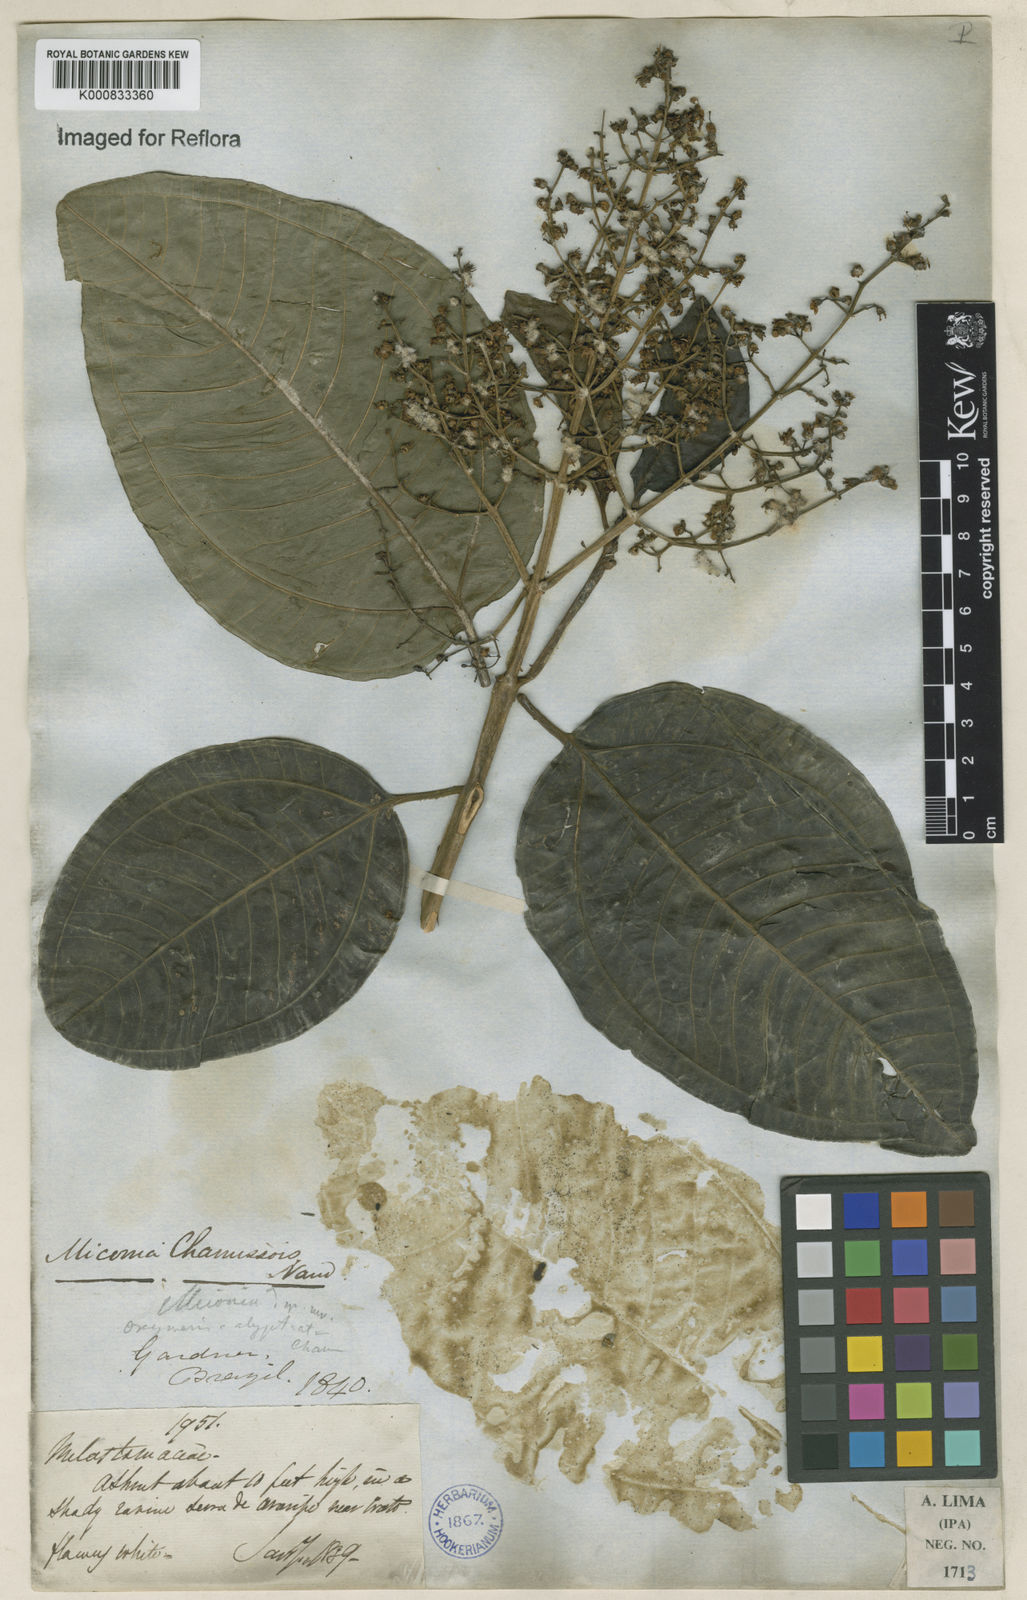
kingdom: Plantae
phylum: Tracheophyta
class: Magnoliopsida
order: Myrtales
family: Melastomataceae
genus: Miconia
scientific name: Miconia chamissois
